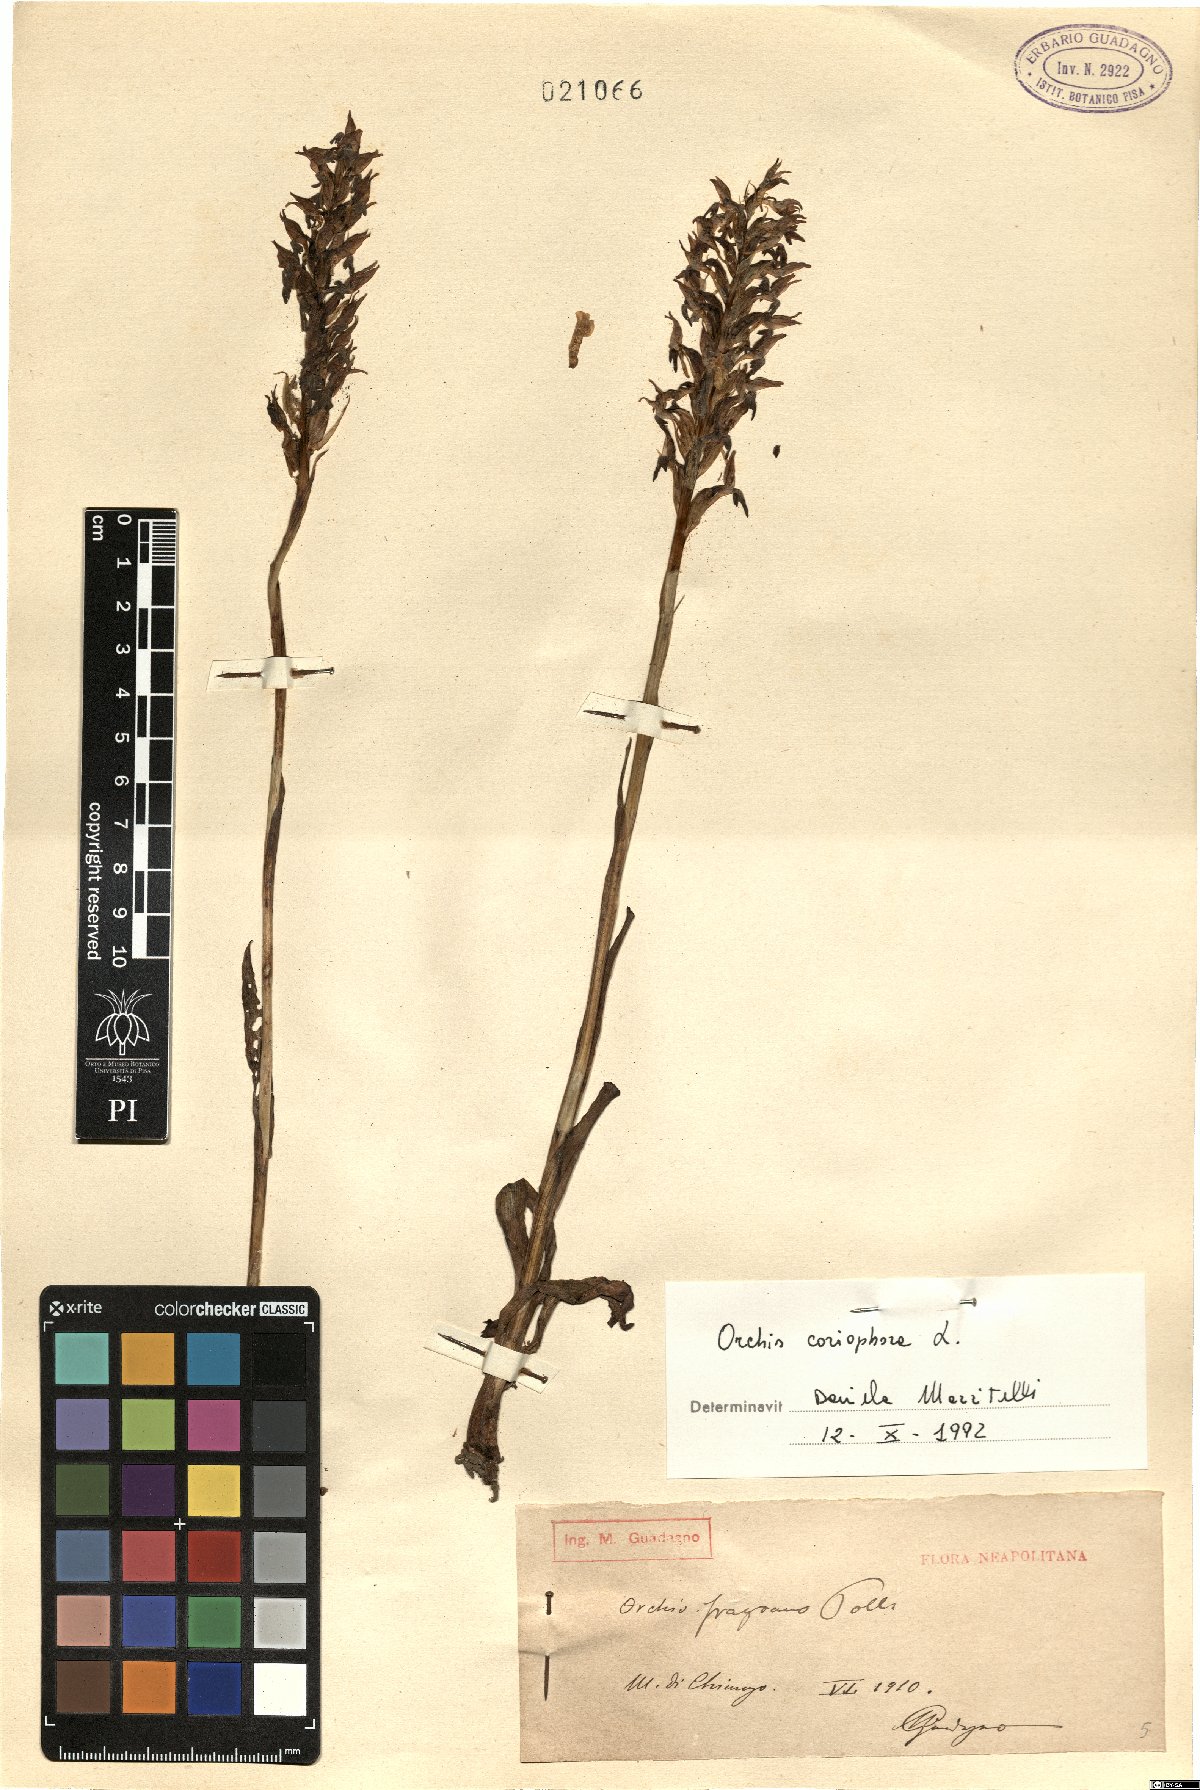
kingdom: Plantae
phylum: Tracheophyta
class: Liliopsida
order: Asparagales
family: Orchidaceae
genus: Anacamptis
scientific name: Anacamptis coriophora
